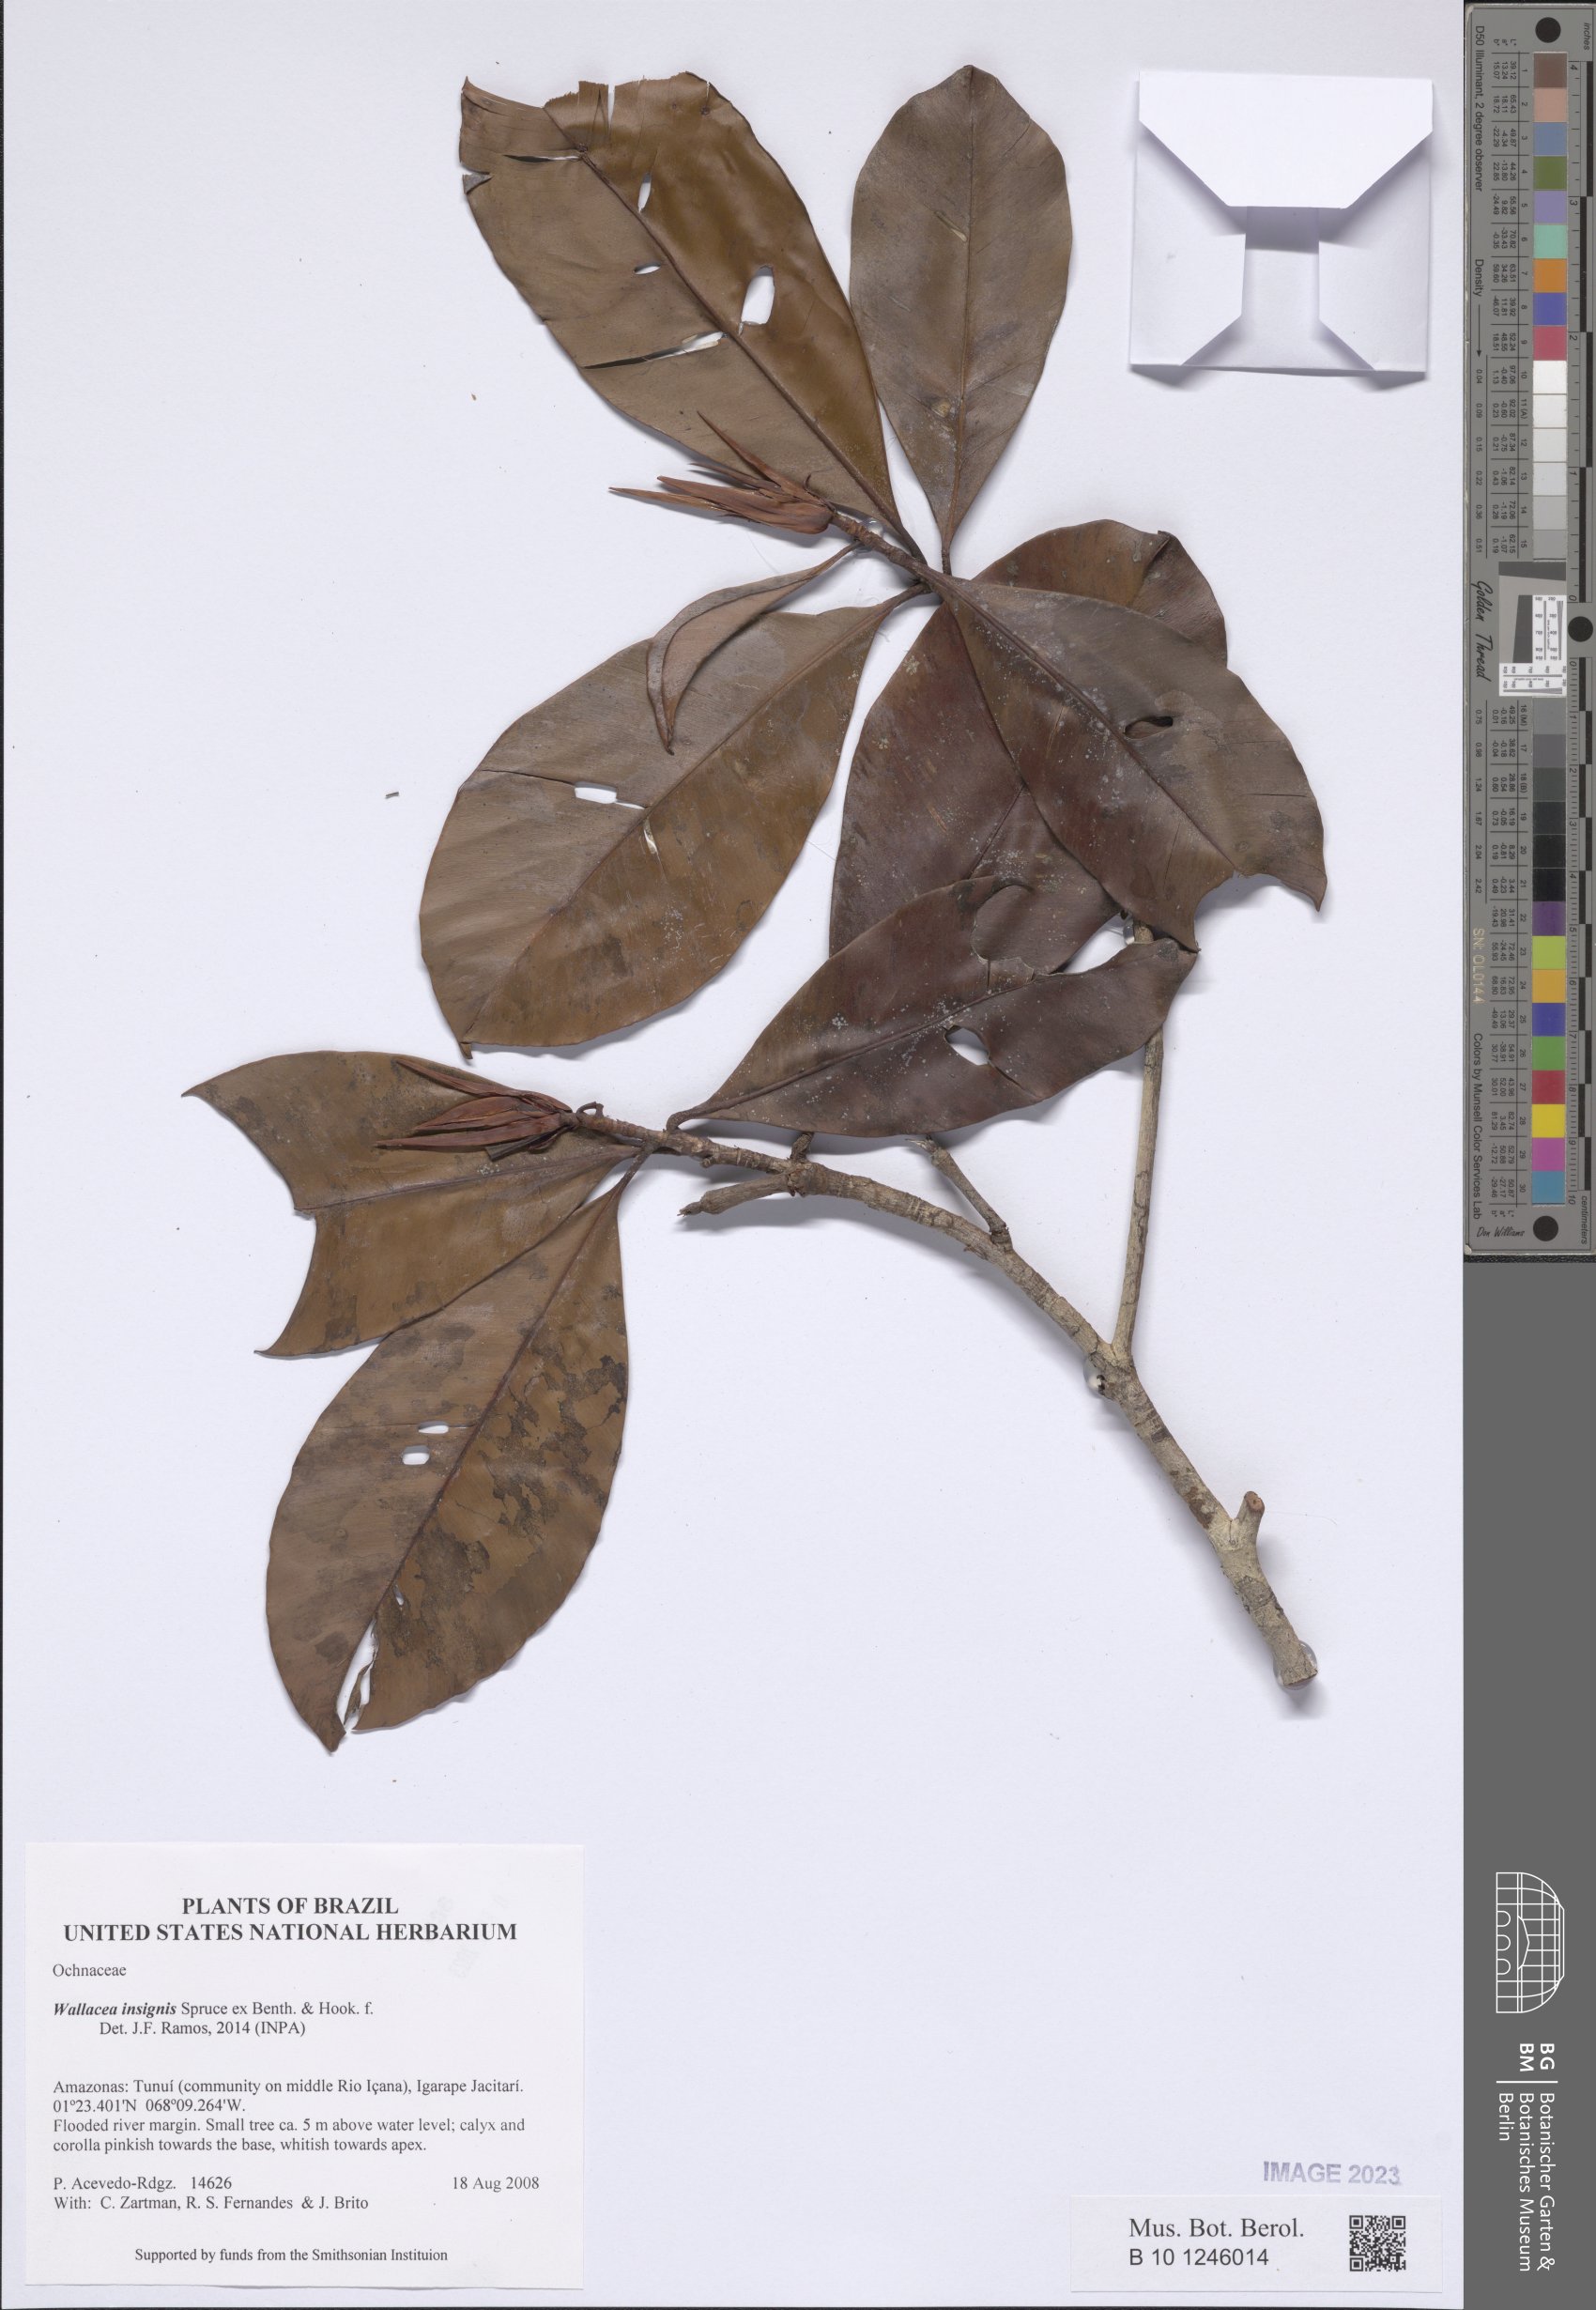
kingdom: Plantae
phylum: Tracheophyta
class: Magnoliopsida
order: Malpighiales
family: Ochnaceae
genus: Wallacea
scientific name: Wallacea insignis
